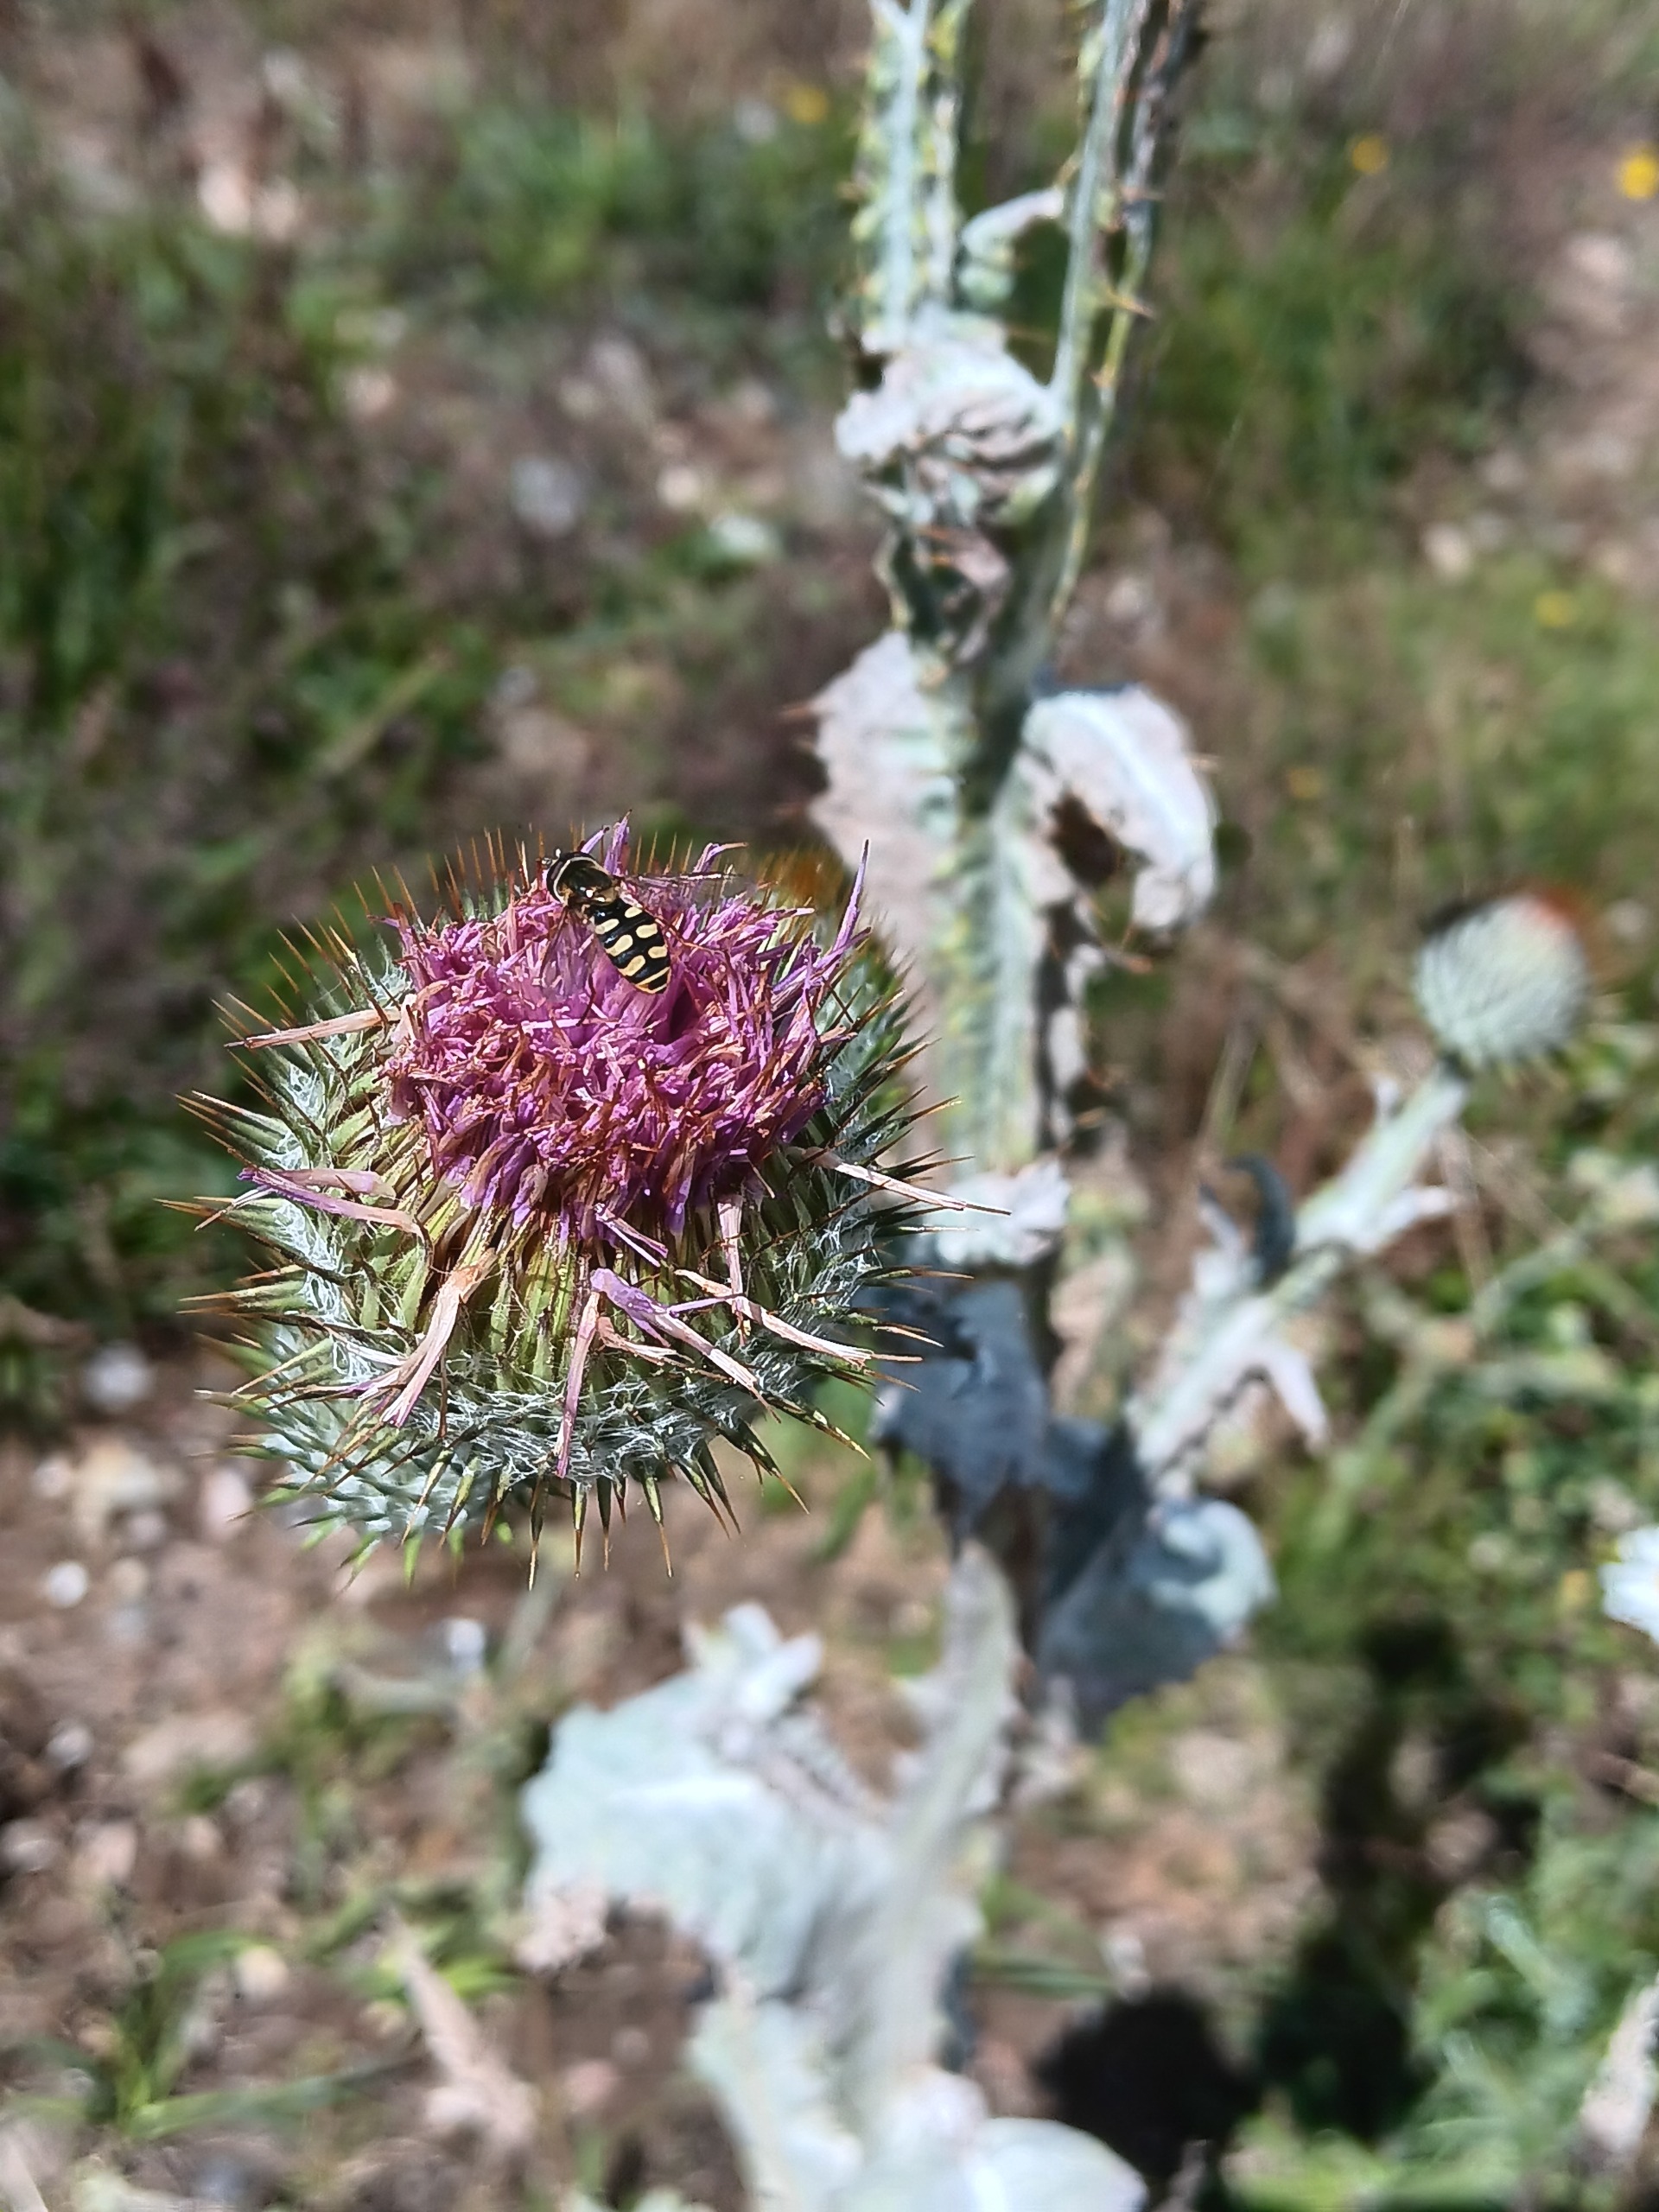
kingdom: Plantae
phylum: Tracheophyta
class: Magnoliopsida
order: Asterales
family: Asteraceae
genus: Onopordum
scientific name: Onopordum acanthium
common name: Æselfoder
